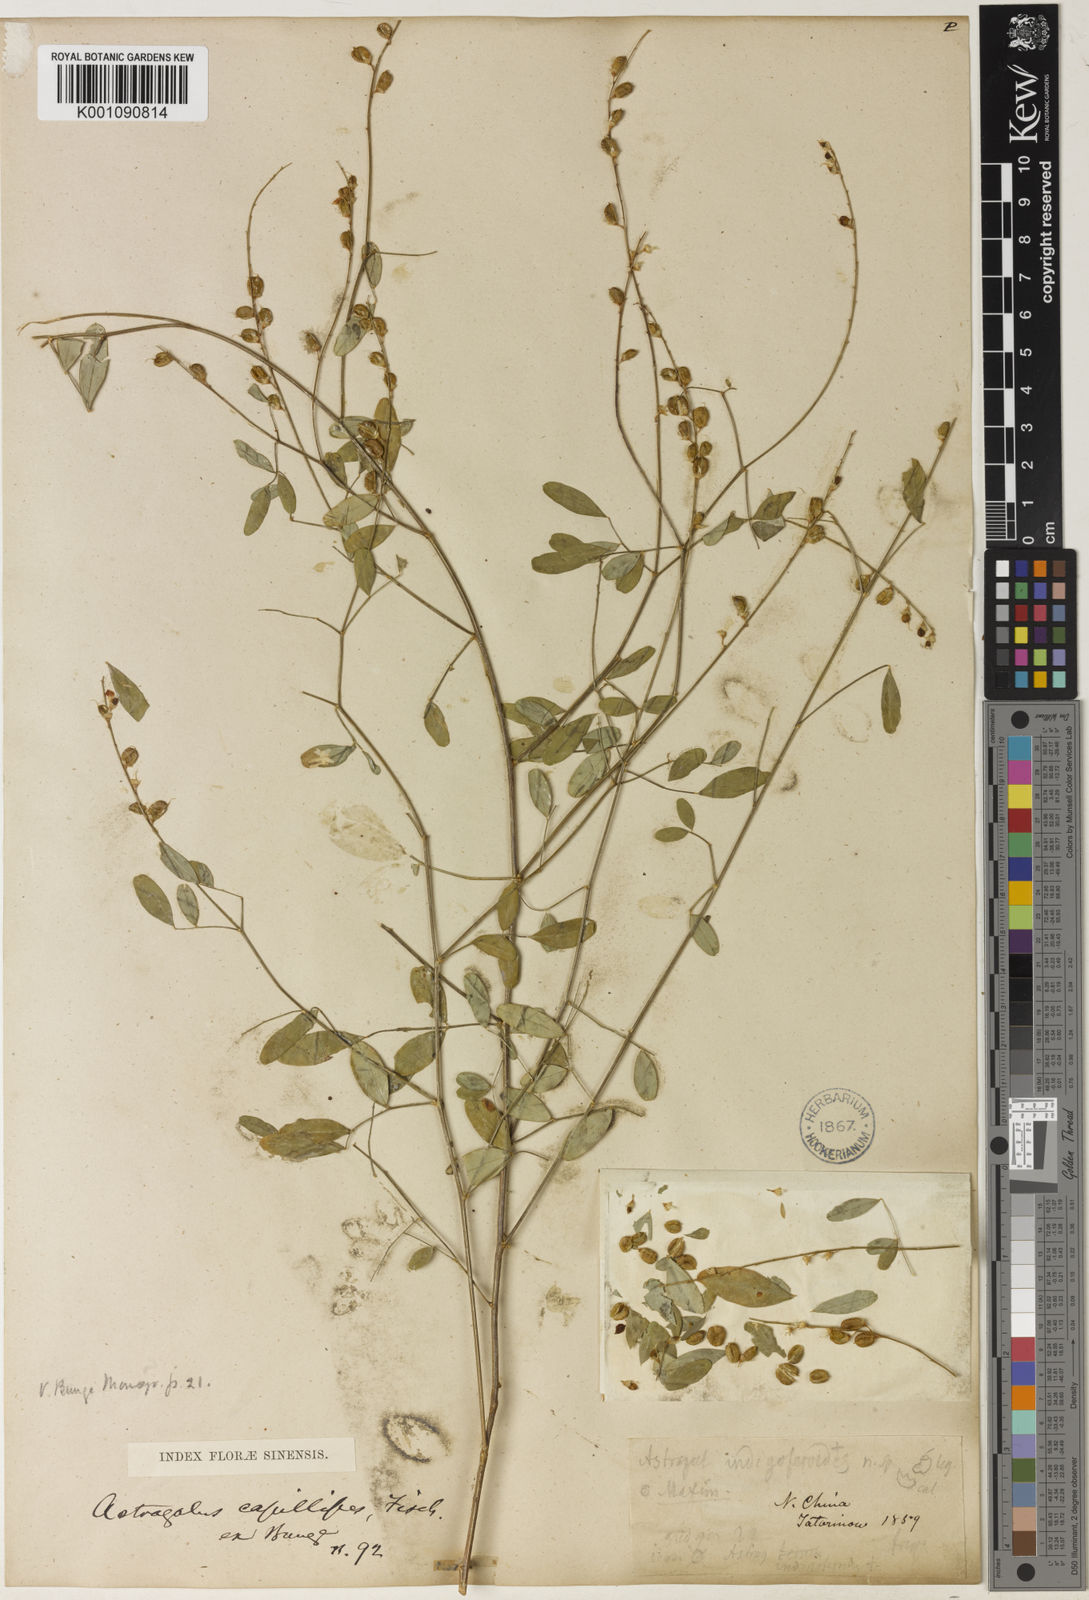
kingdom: Plantae
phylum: Tracheophyta
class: Magnoliopsida
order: Fabales
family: Fabaceae
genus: Astragalus
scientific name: Astragalus
